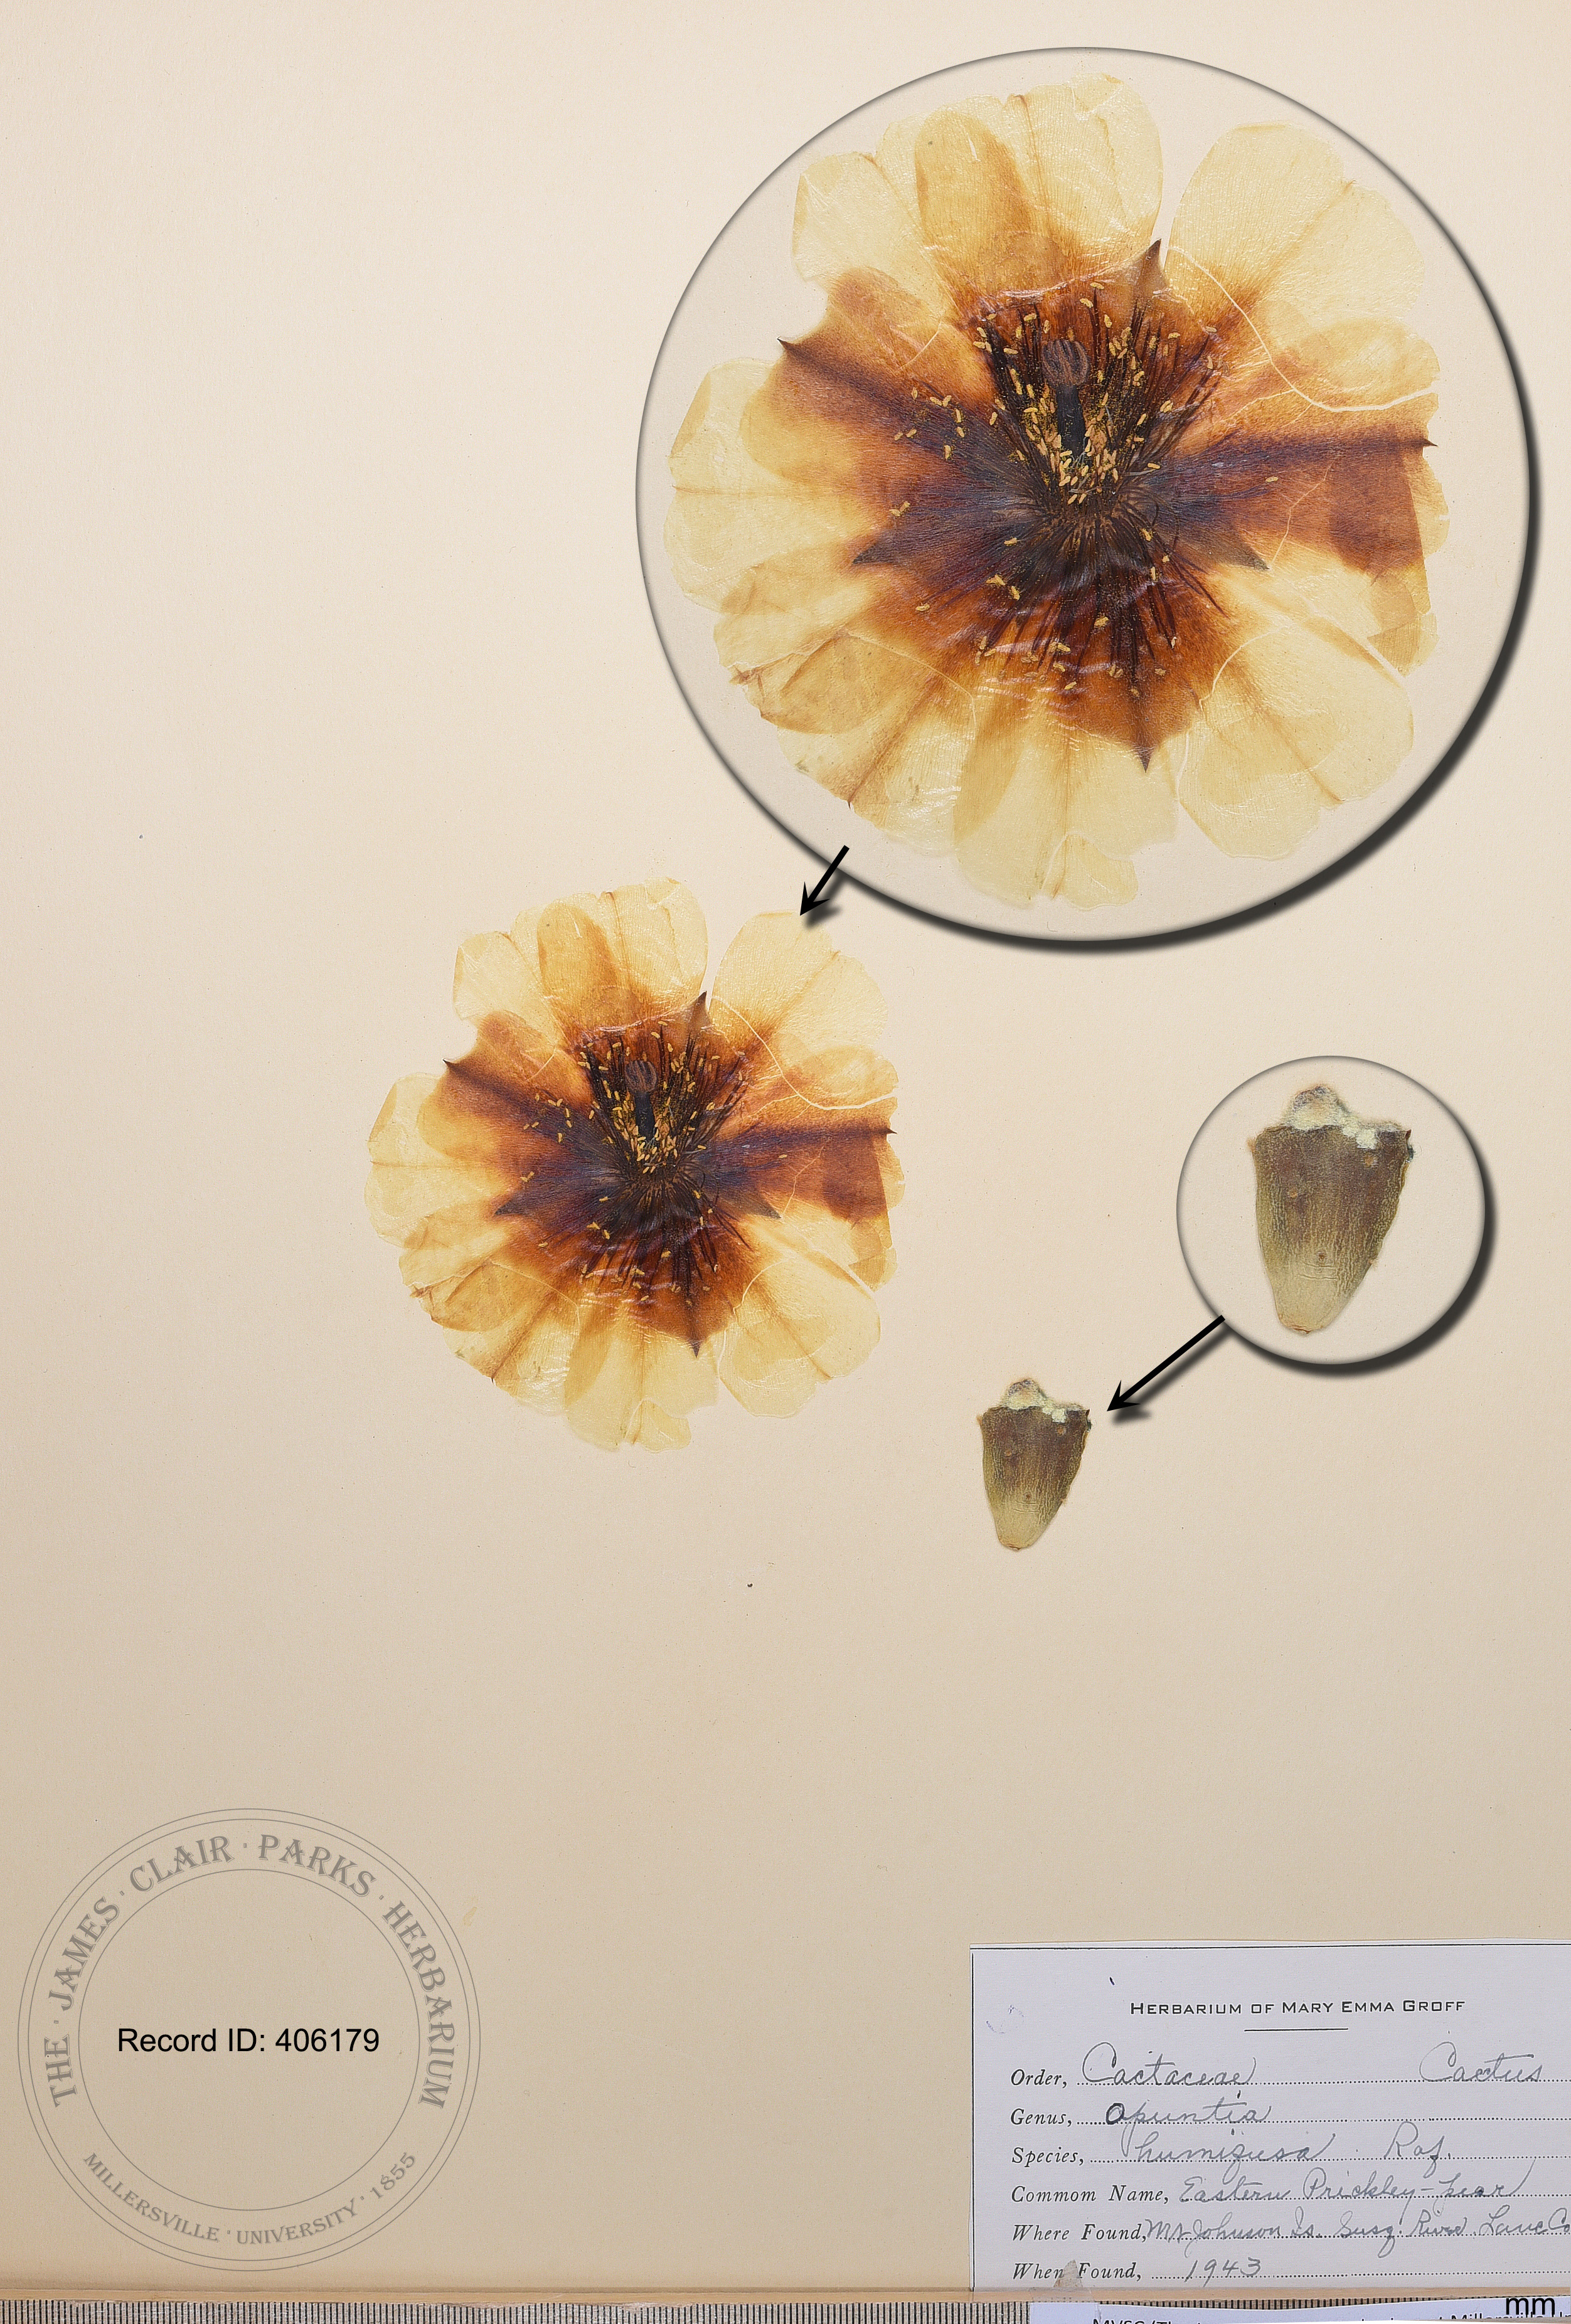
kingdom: Plantae
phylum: Tracheophyta
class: Magnoliopsida
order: Caryophyllales
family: Cactaceae
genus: Opuntia
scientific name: Opuntia humifusa
